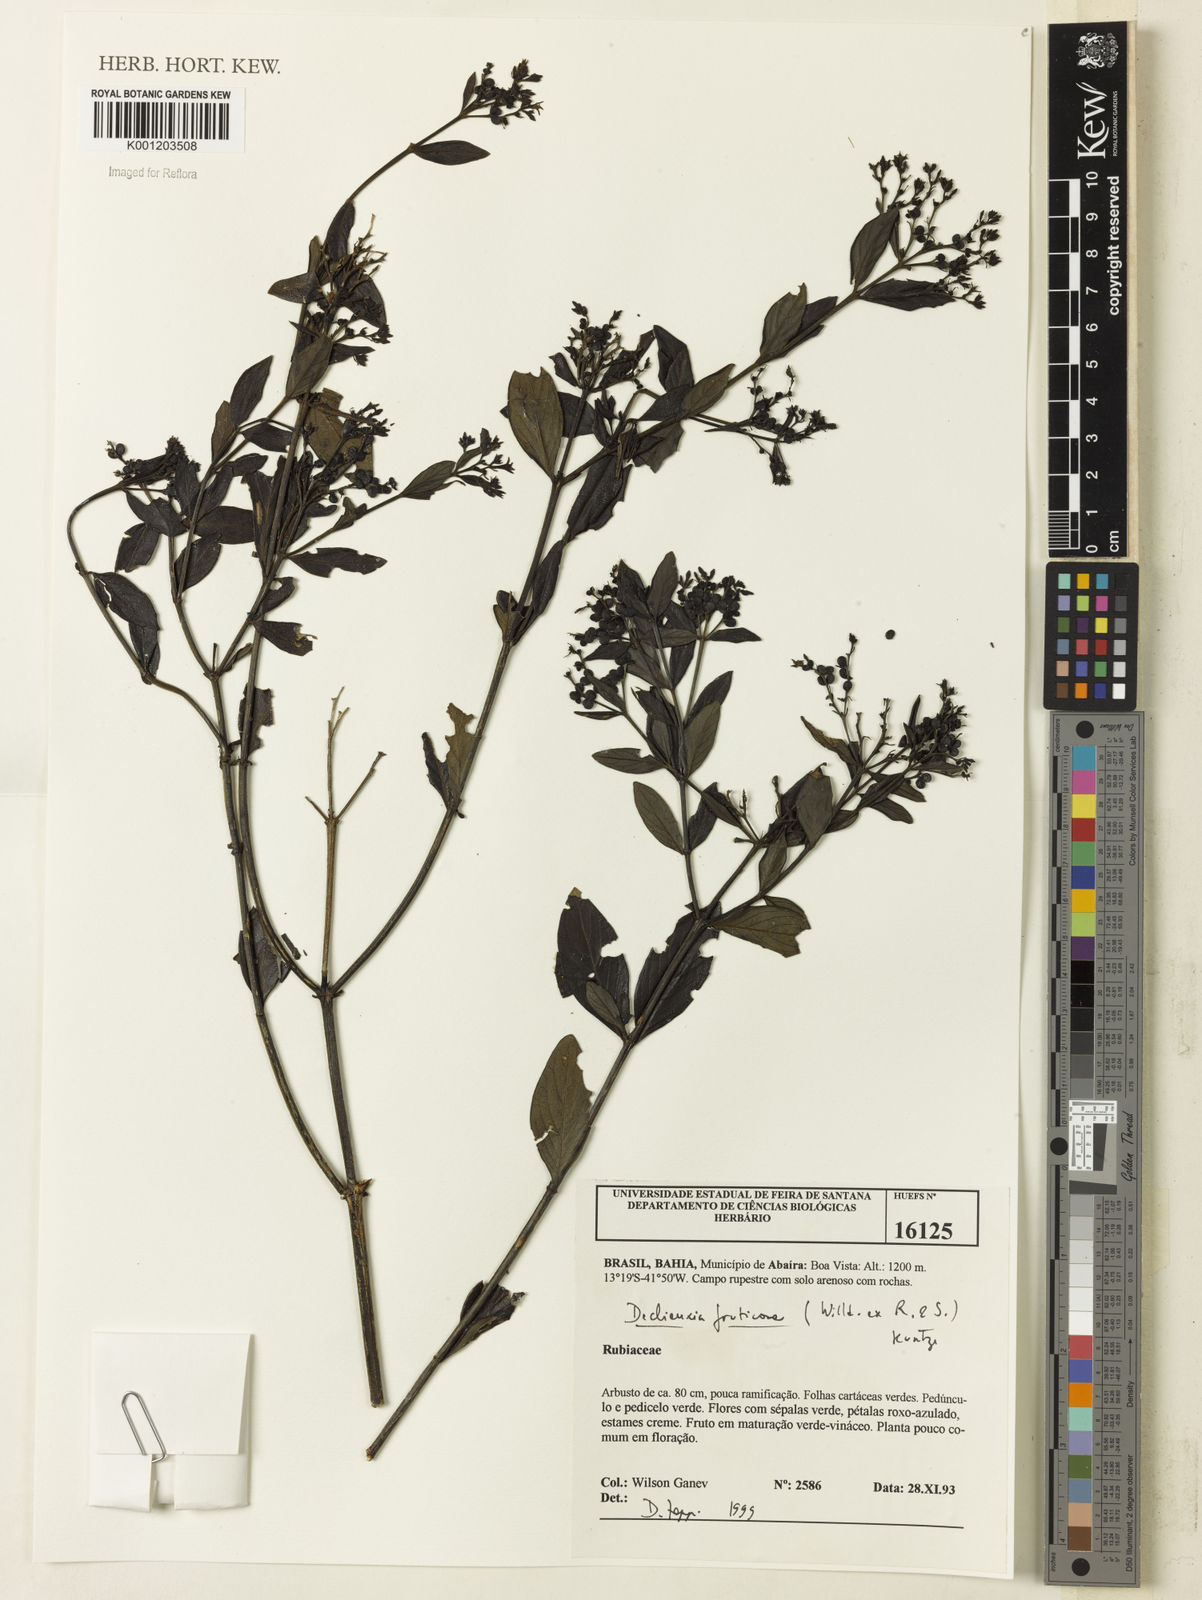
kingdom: Plantae
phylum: Tracheophyta
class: Magnoliopsida
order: Gentianales
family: Rubiaceae
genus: Declieuxia
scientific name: Declieuxia fruticosa
